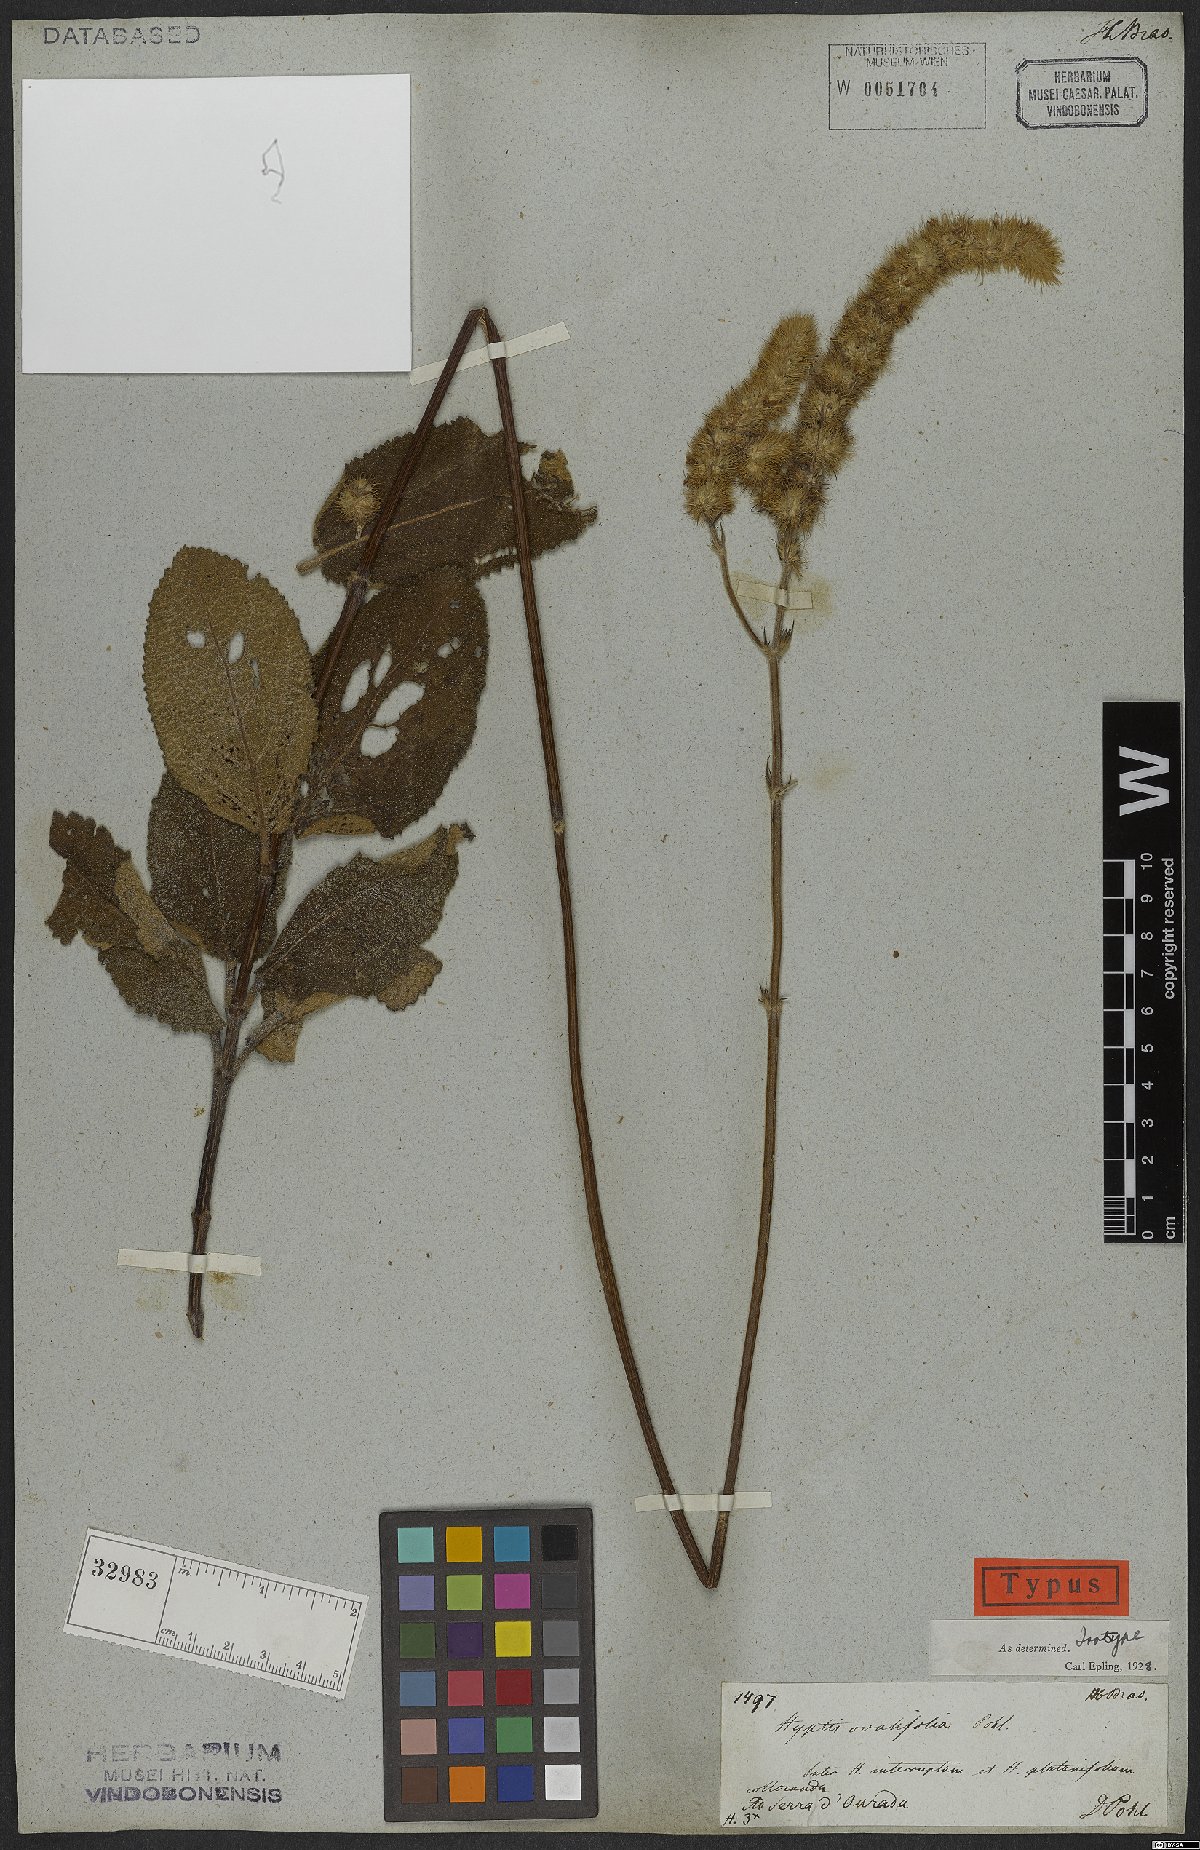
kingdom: Plantae
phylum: Tracheophyta
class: Magnoliopsida
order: Lamiales
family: Lamiaceae
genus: Hyptis
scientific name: Hyptis ovalifolia
